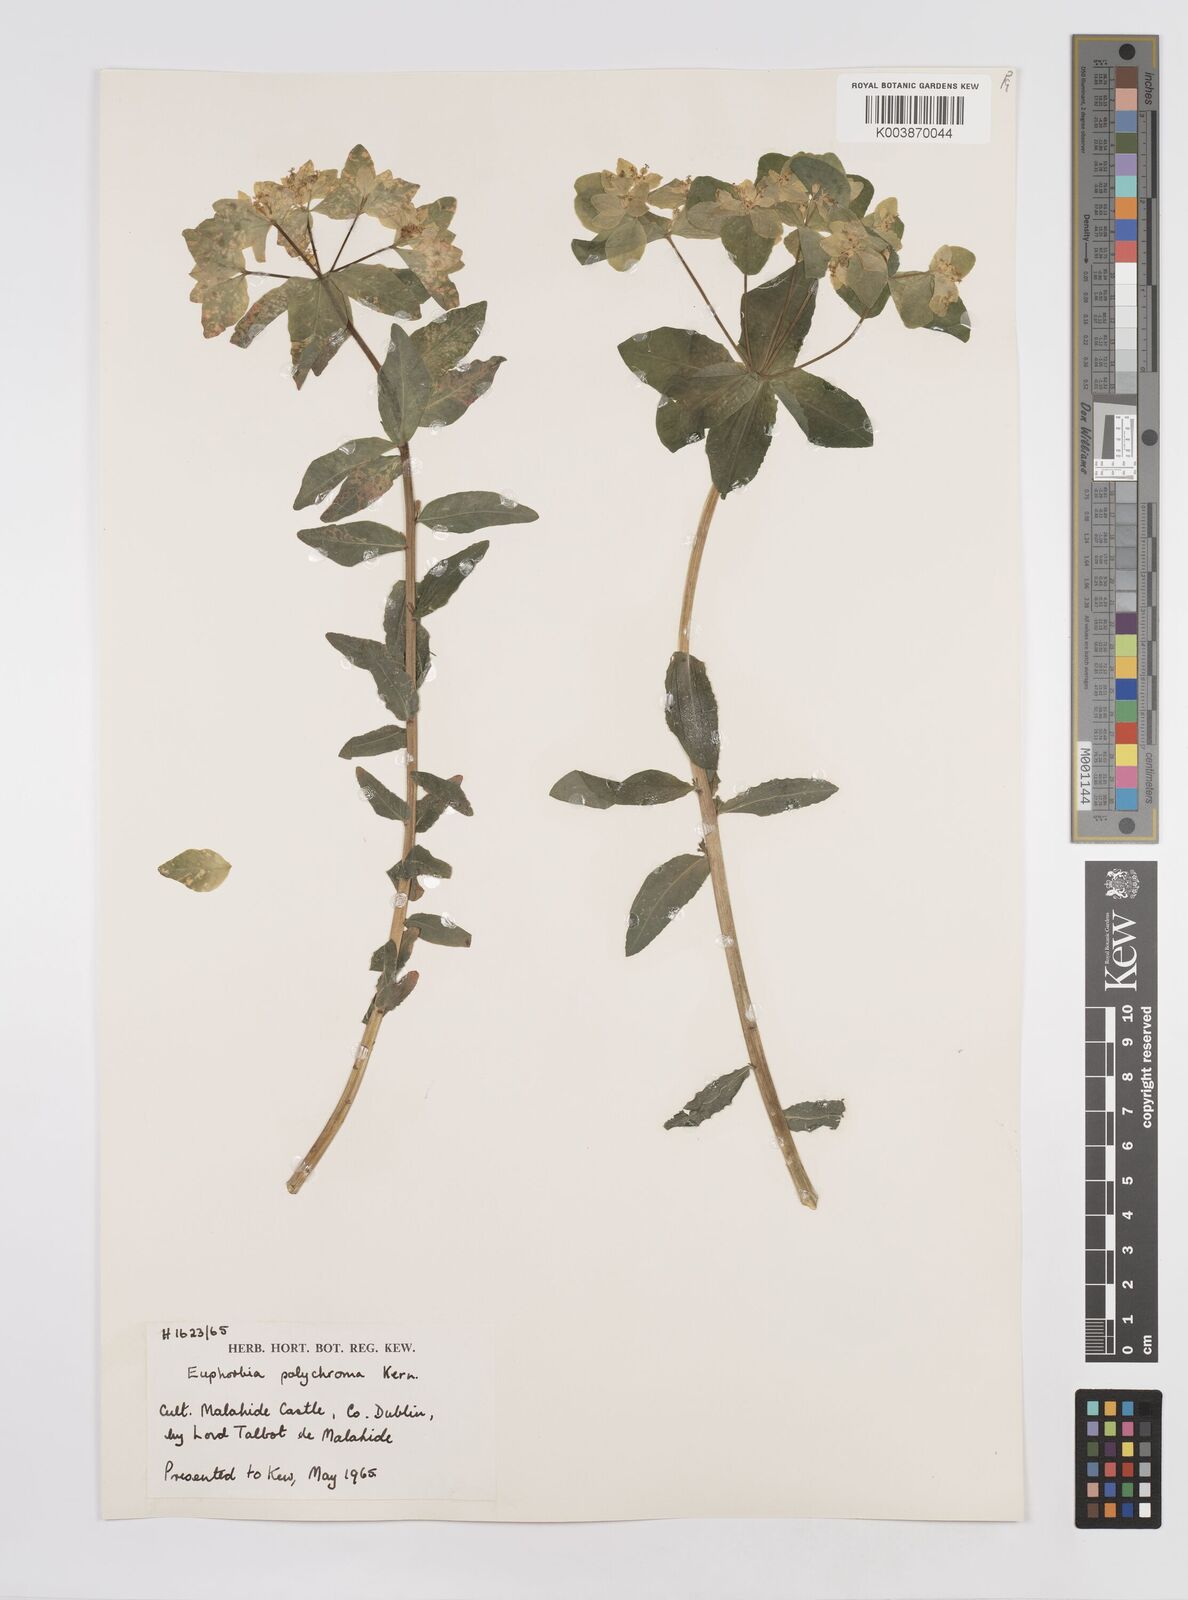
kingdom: Plantae
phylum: Tracheophyta
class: Magnoliopsida
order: Malpighiales
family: Euphorbiaceae
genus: Euphorbia
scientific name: Euphorbia epithymoides
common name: Cushion spurge
